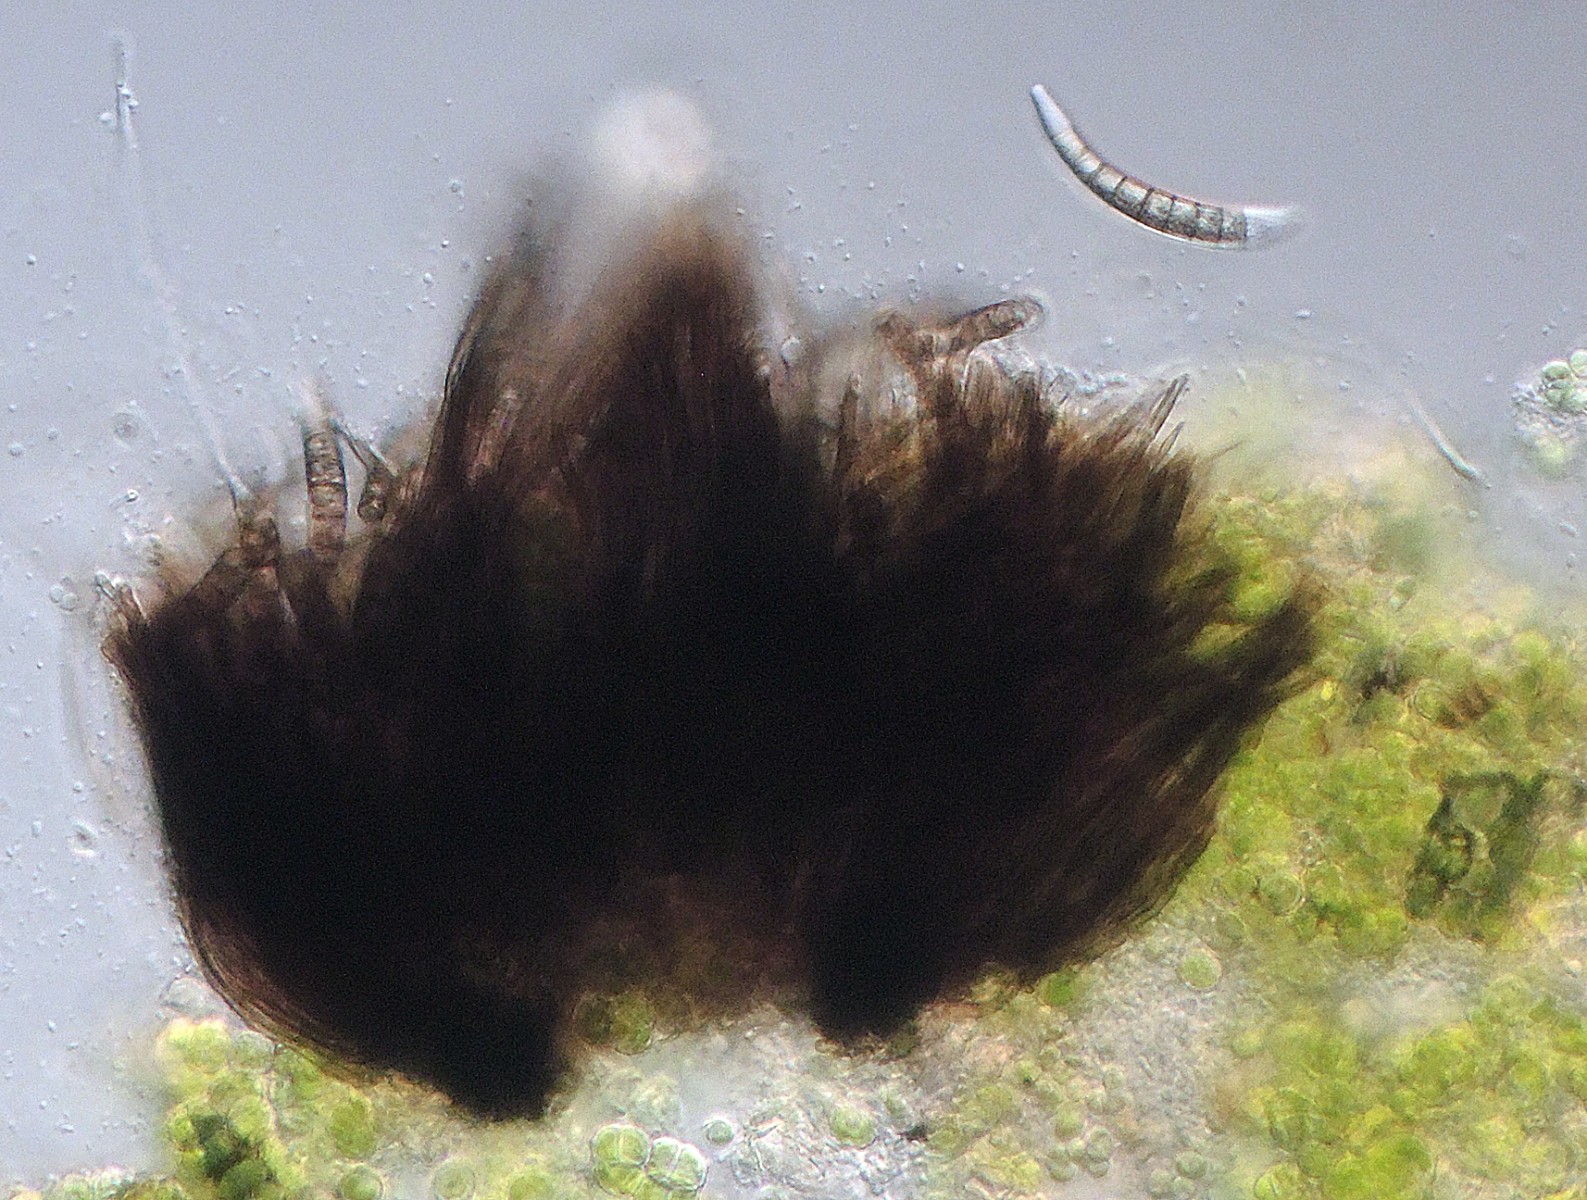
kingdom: Fungi
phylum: Ascomycota
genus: Excipularia
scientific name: Excipularia fusispora
